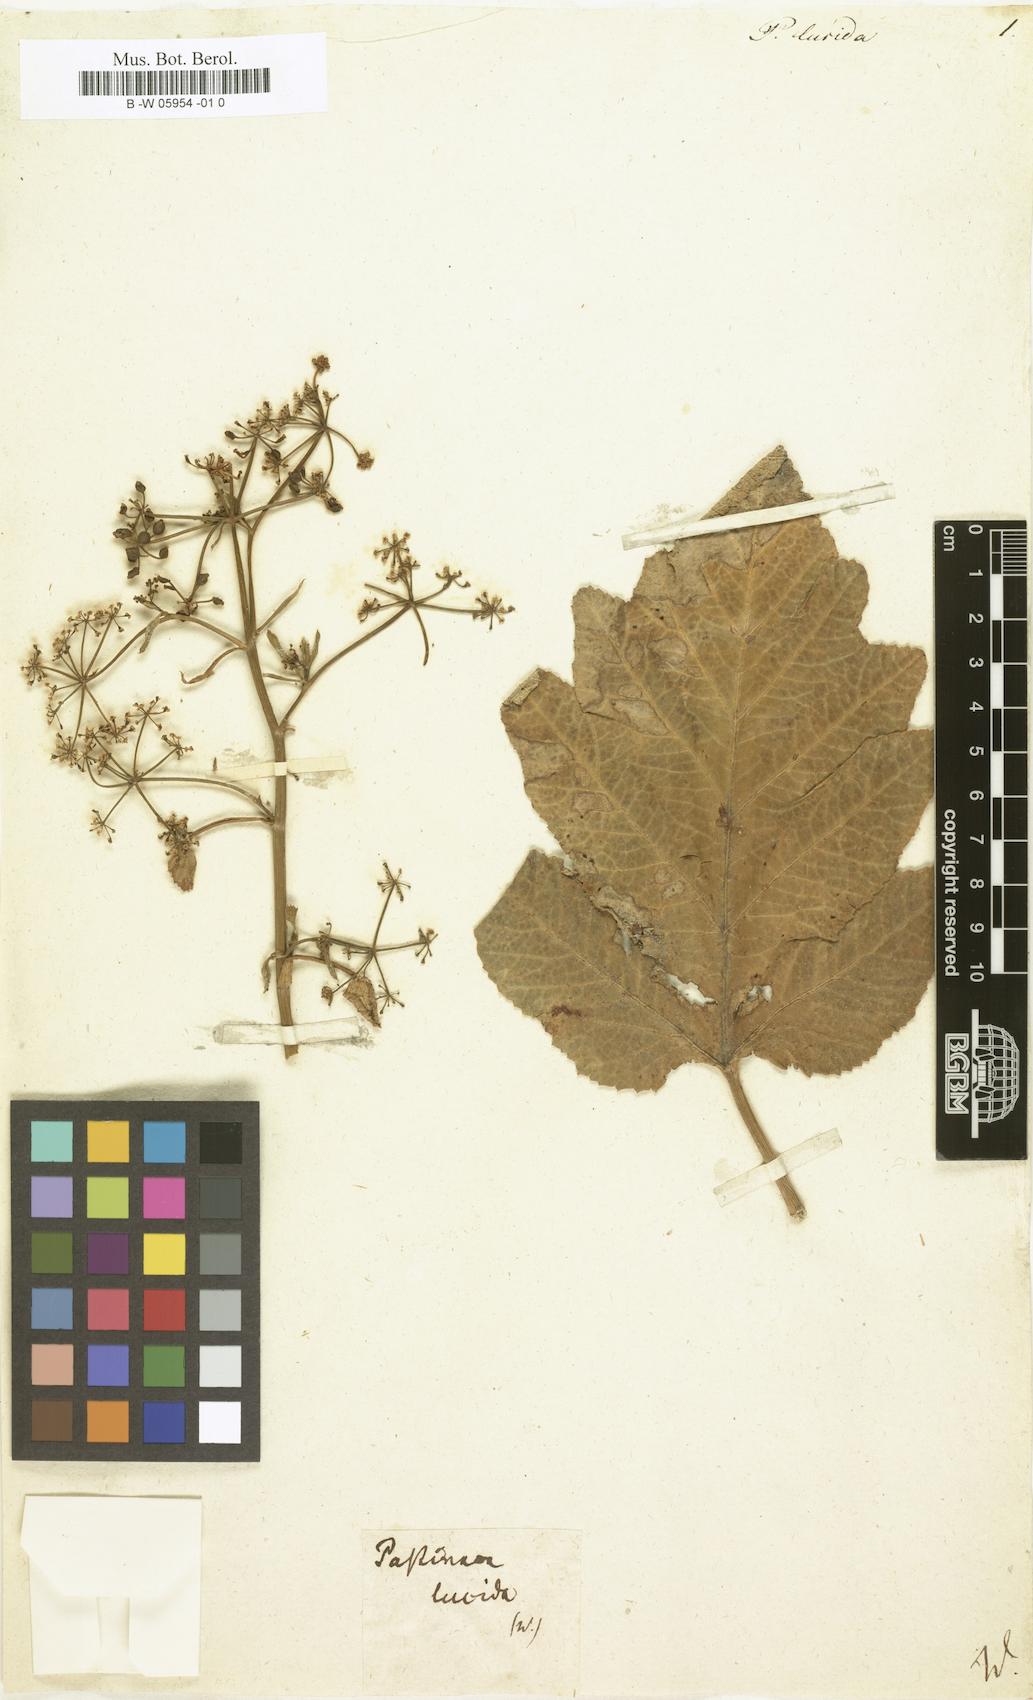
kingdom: Plantae
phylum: Tracheophyta
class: Magnoliopsida
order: Apiales
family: Apiaceae
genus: Pastinaca
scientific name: Pastinaca lucida
